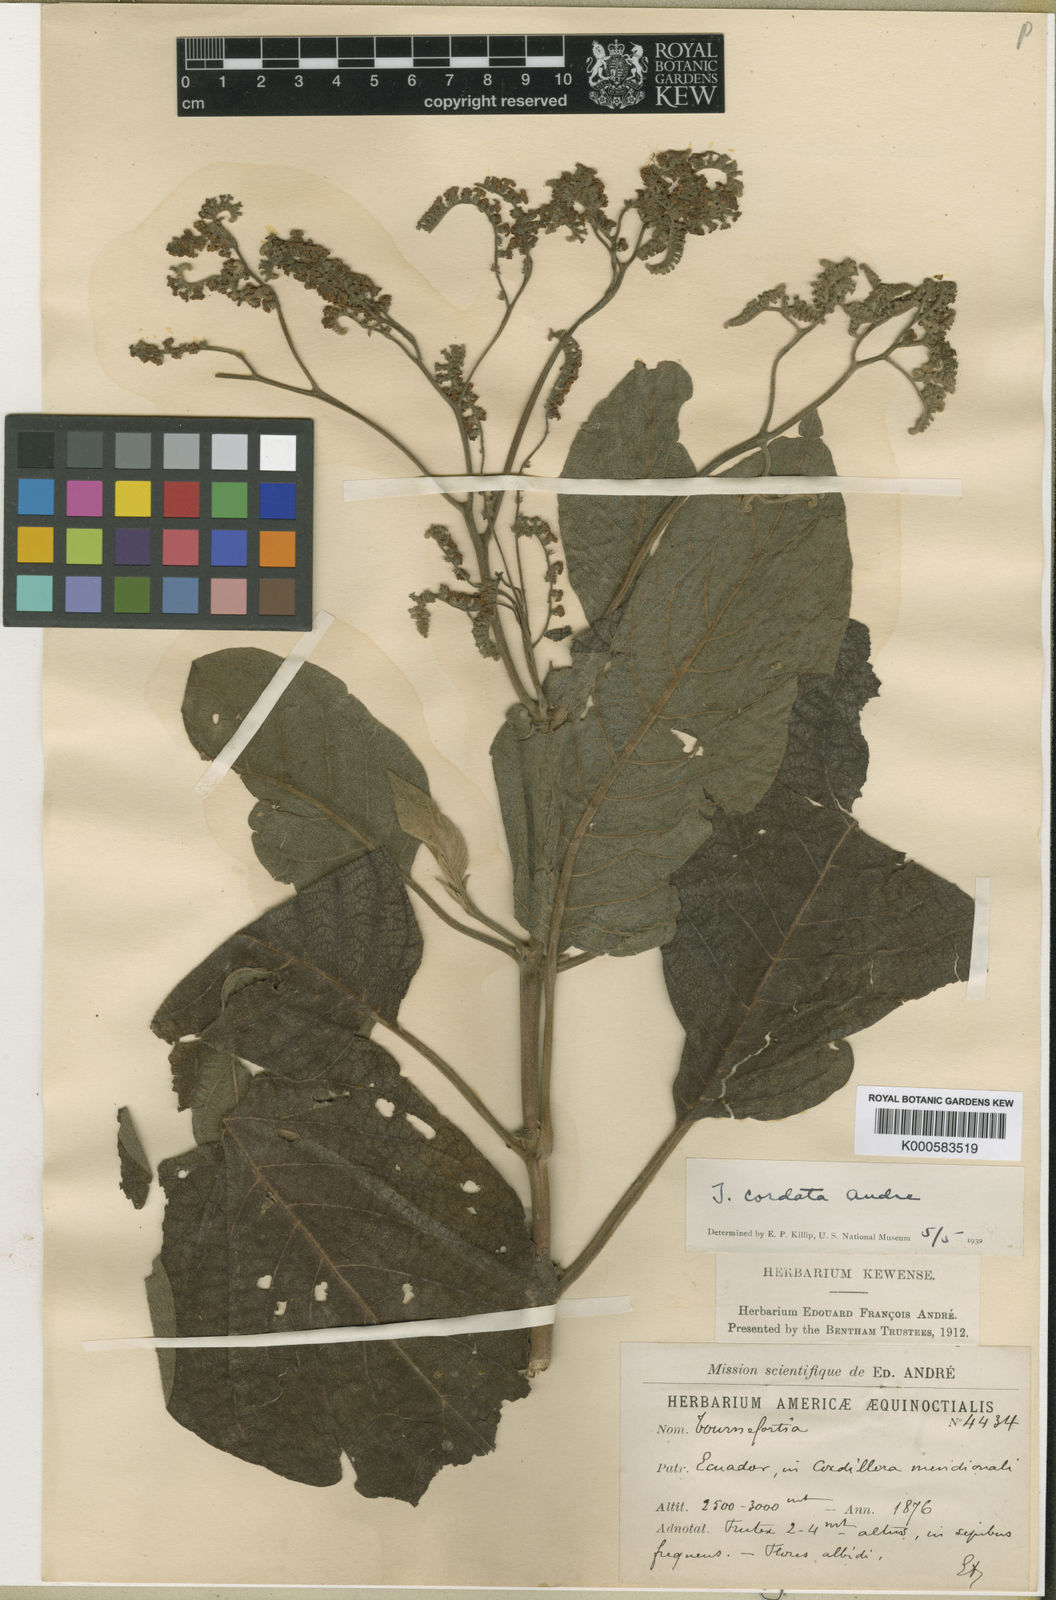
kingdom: Plantae
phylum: Tracheophyta
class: Magnoliopsida
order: Boraginales
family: Heliotropiaceae
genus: Tournefortia
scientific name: Tournefortia polystachya
